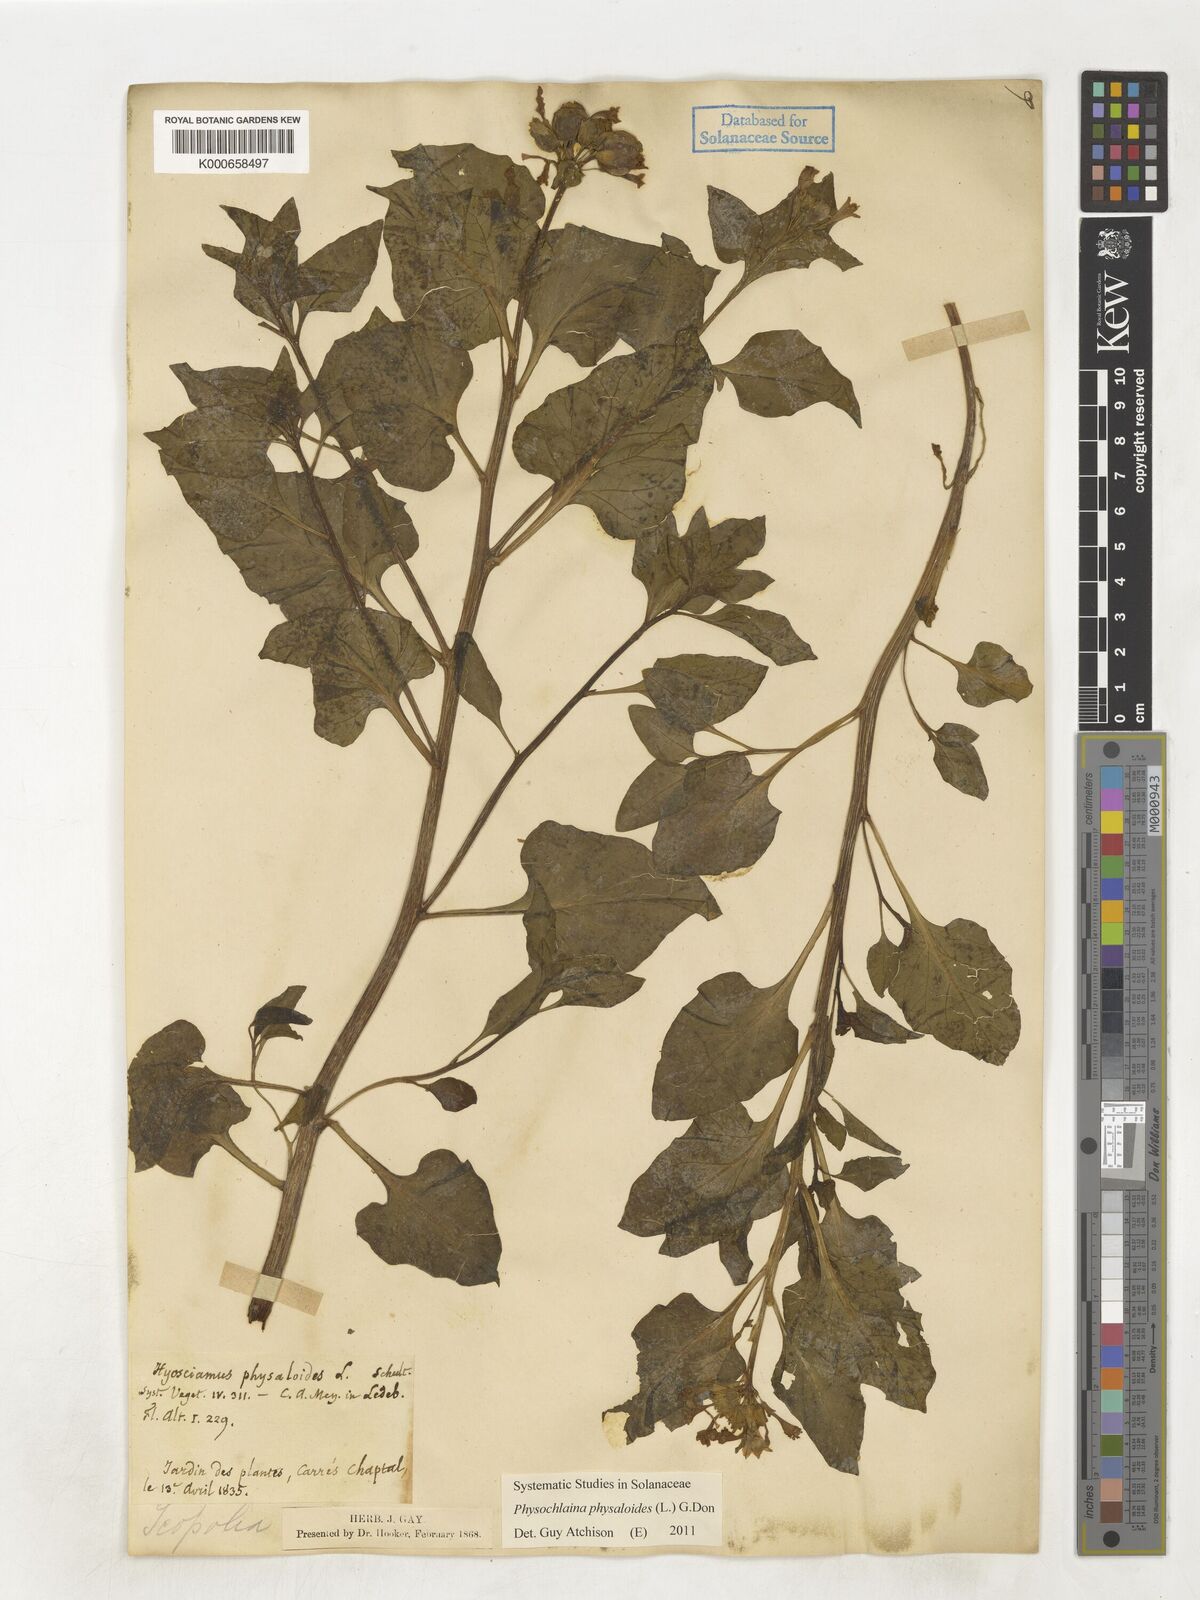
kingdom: Plantae
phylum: Tracheophyta
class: Magnoliopsida
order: Solanales
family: Solanaceae
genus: Physochlaina
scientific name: Physochlaina physaloides
